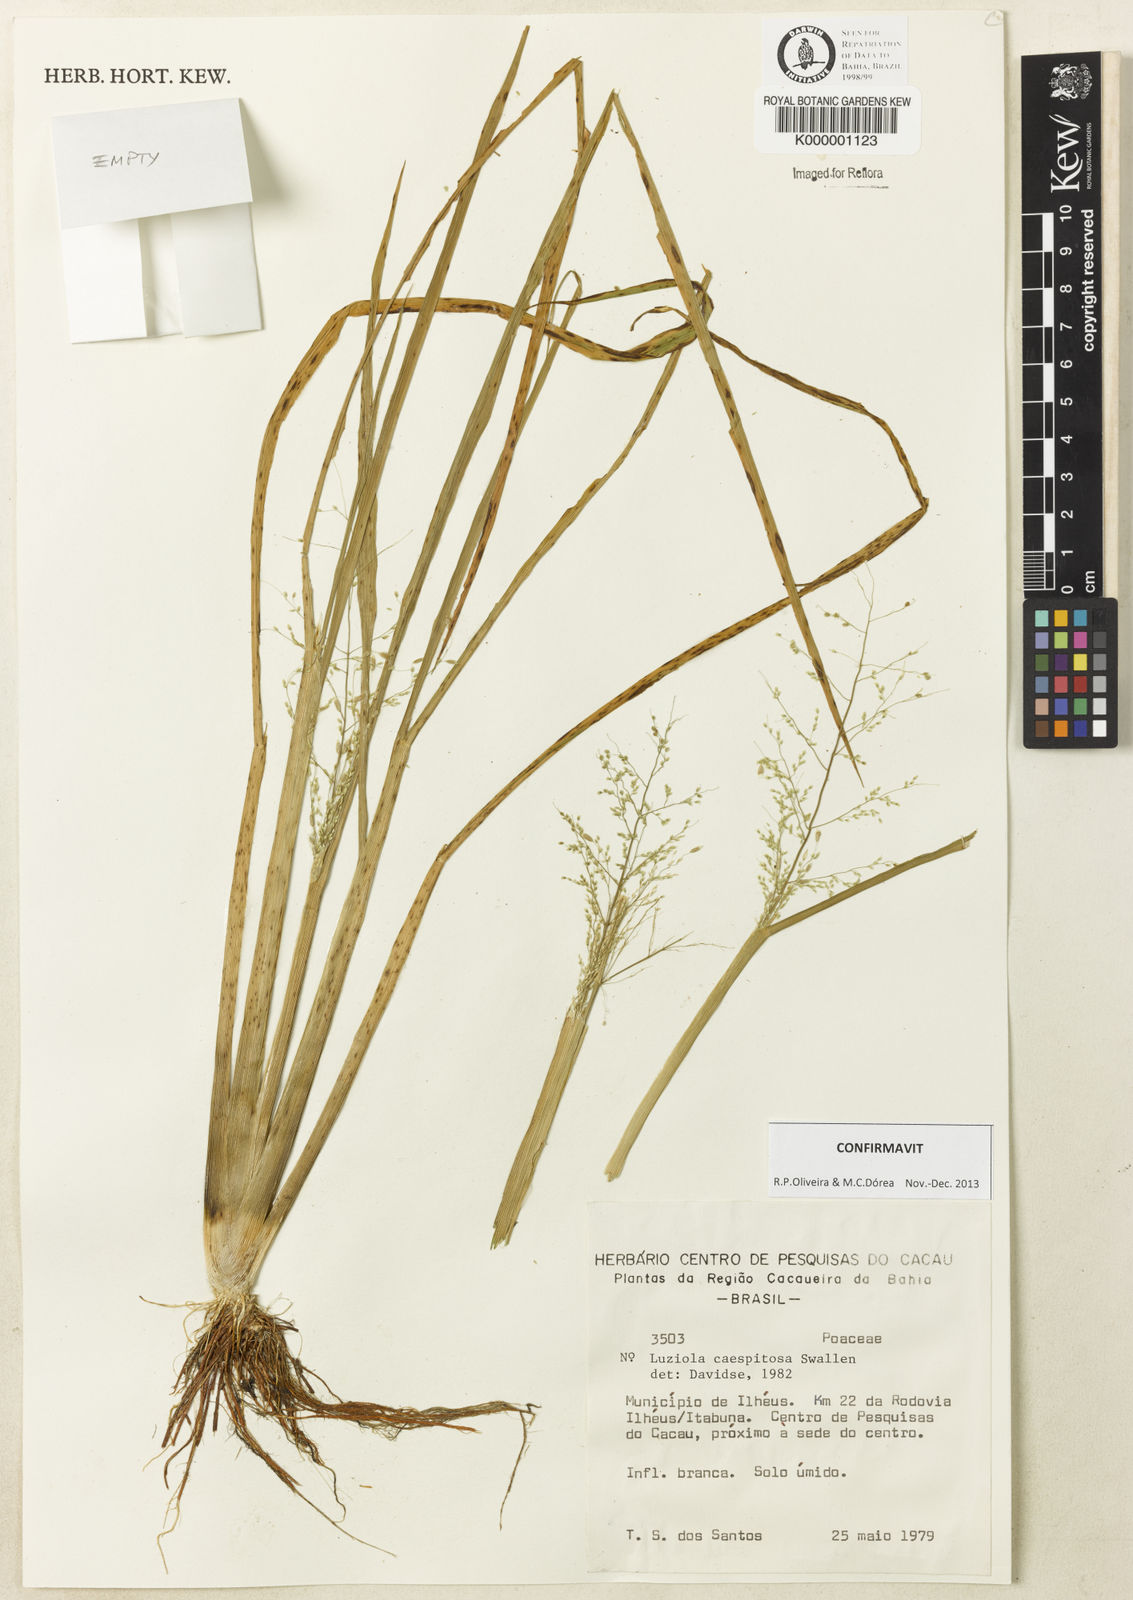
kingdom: Plantae
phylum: Tracheophyta
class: Liliopsida
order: Poales
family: Poaceae
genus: Luziola
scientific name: Luziola caespitosa
